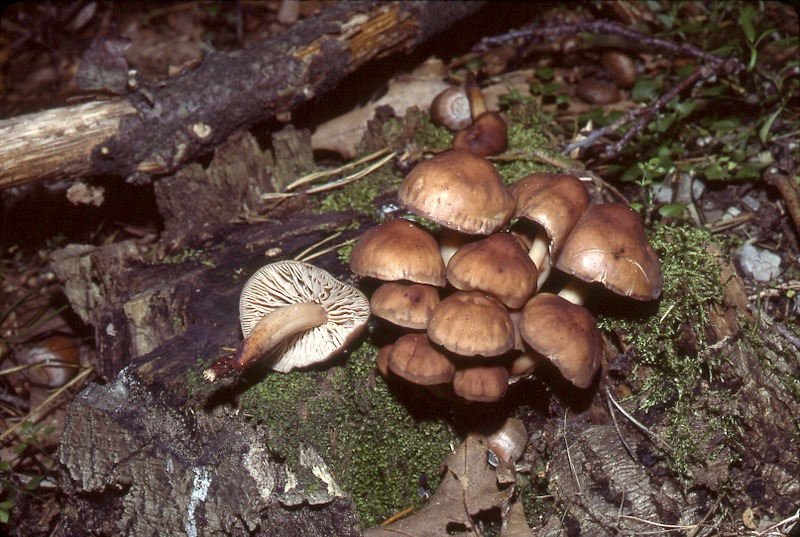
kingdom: Fungi
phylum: Basidiomycota
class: Agaricomycetes
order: Agaricales
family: Omphalotaceae
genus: Gymnopus
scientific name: Gymnopus fusipes
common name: Spindle shank
